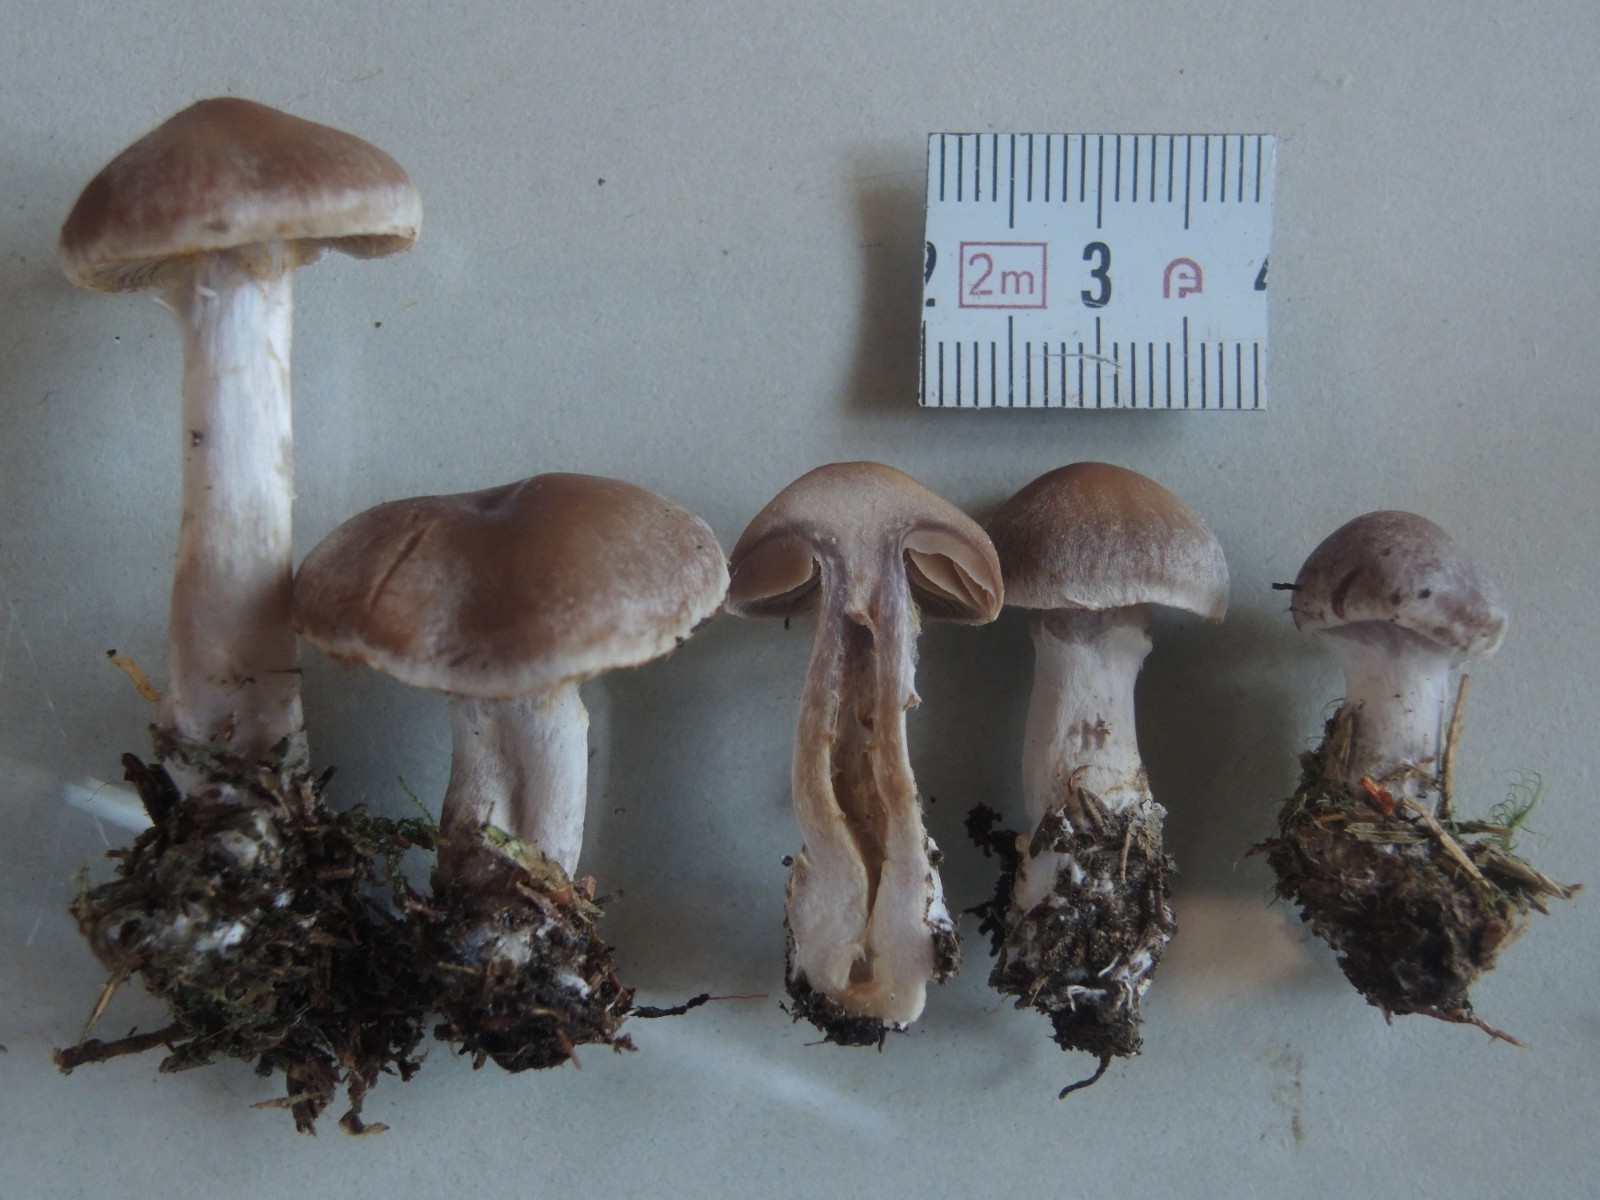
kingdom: Fungi
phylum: Basidiomycota
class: Agaricomycetes
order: Agaricales
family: Cortinariaceae
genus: Cortinarius
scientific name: Cortinarius kauffmanianus
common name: plantage-slørhat
